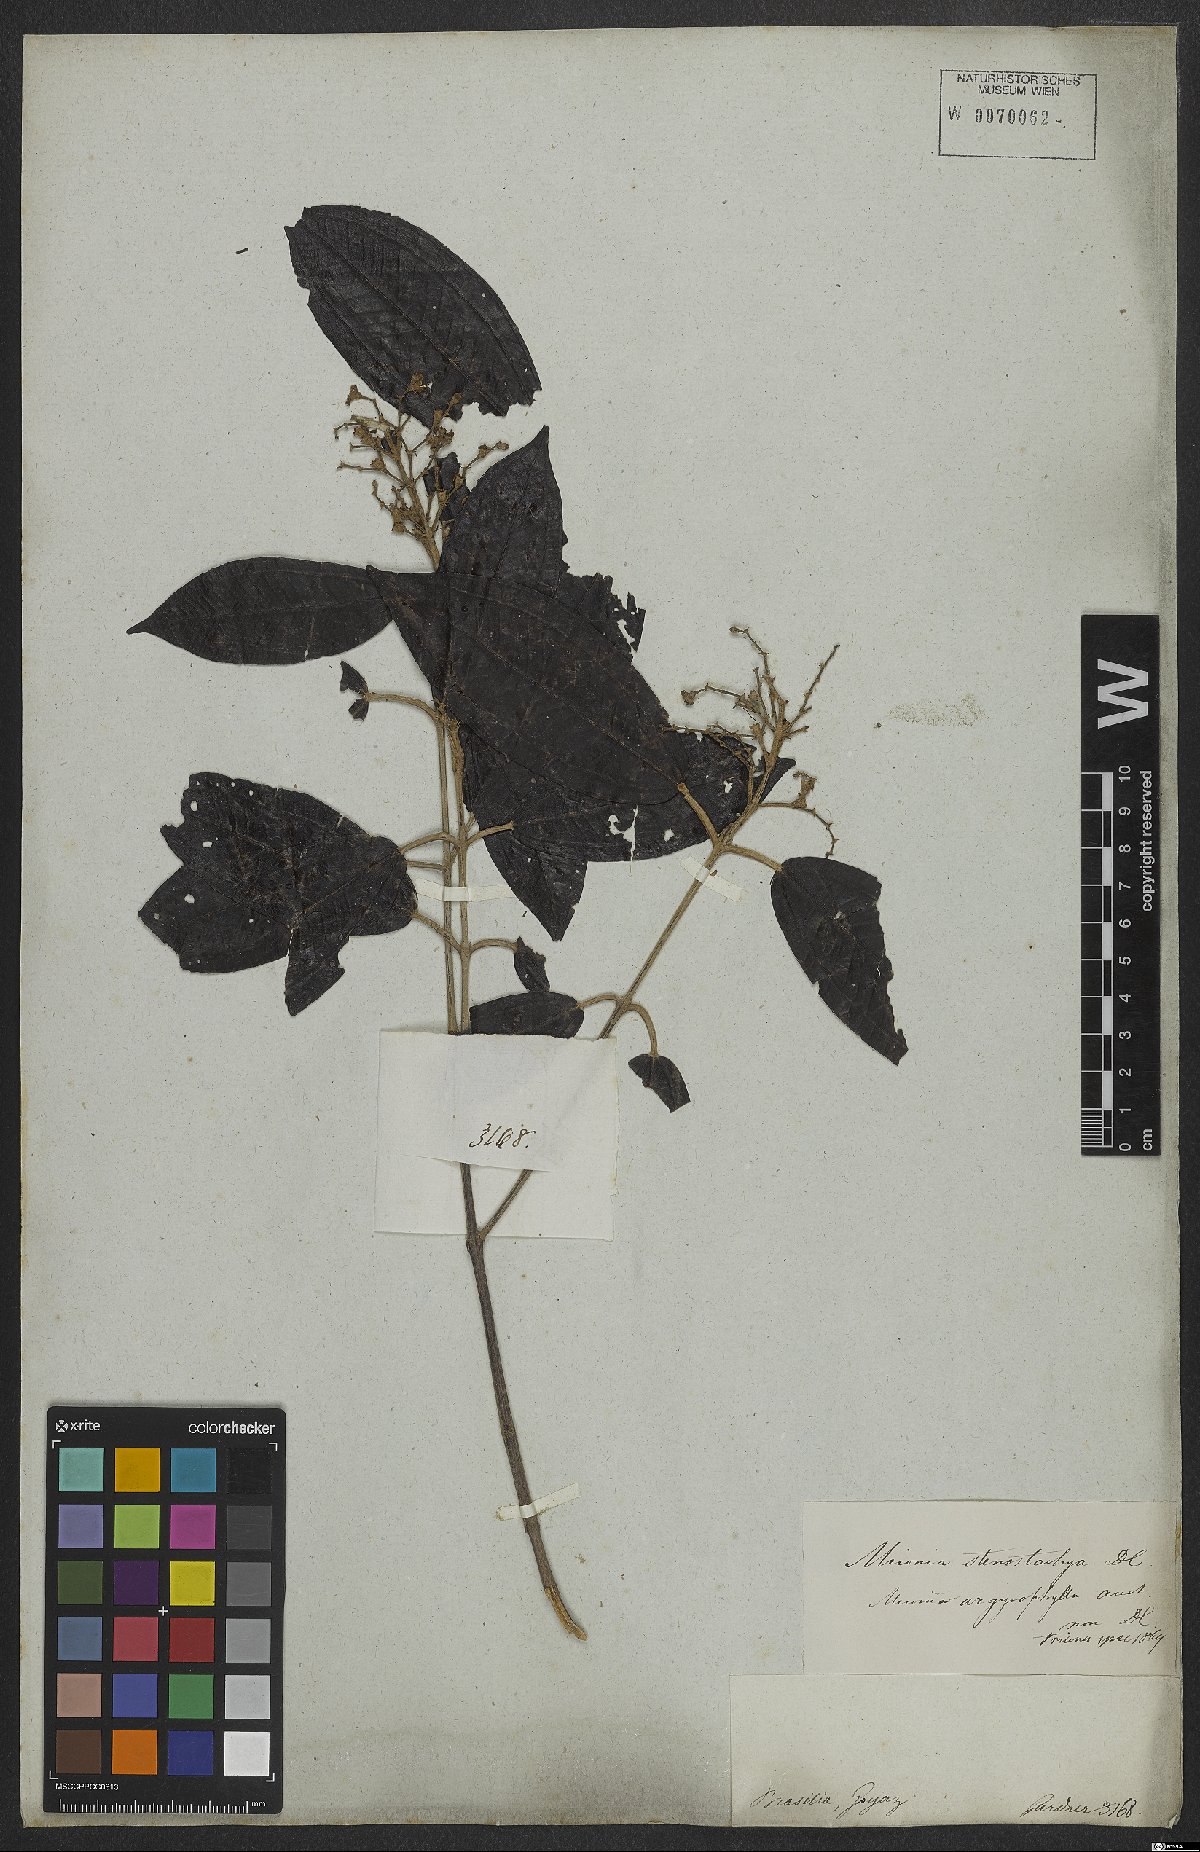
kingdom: Plantae
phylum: Tracheophyta
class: Magnoliopsida
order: Myrtales
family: Melastomataceae
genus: Miconia
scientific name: Miconia stenostachya
